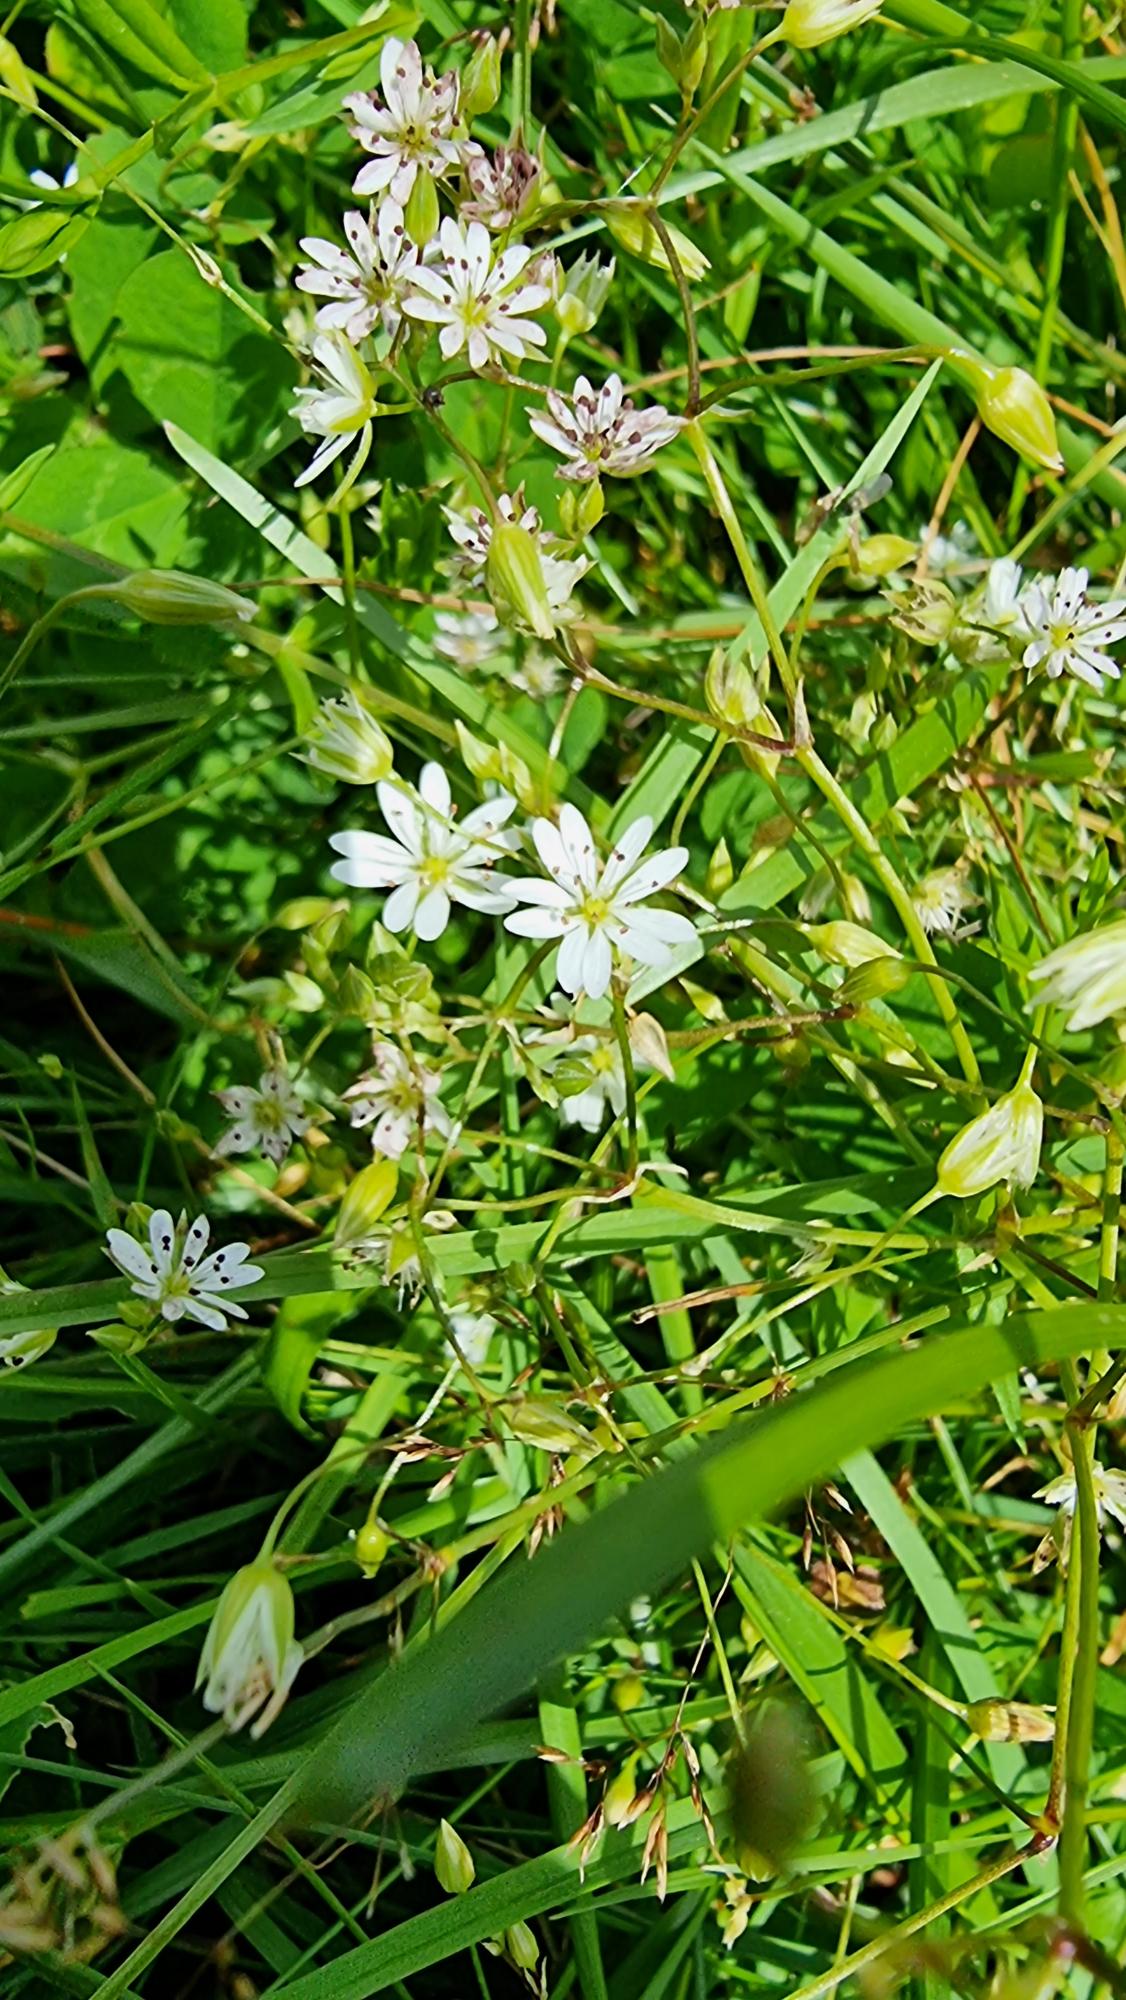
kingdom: Plantae
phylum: Tracheophyta
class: Magnoliopsida
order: Caryophyllales
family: Caryophyllaceae
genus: Stellaria
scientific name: Stellaria graminea
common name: Græsbladet fladstjerne
